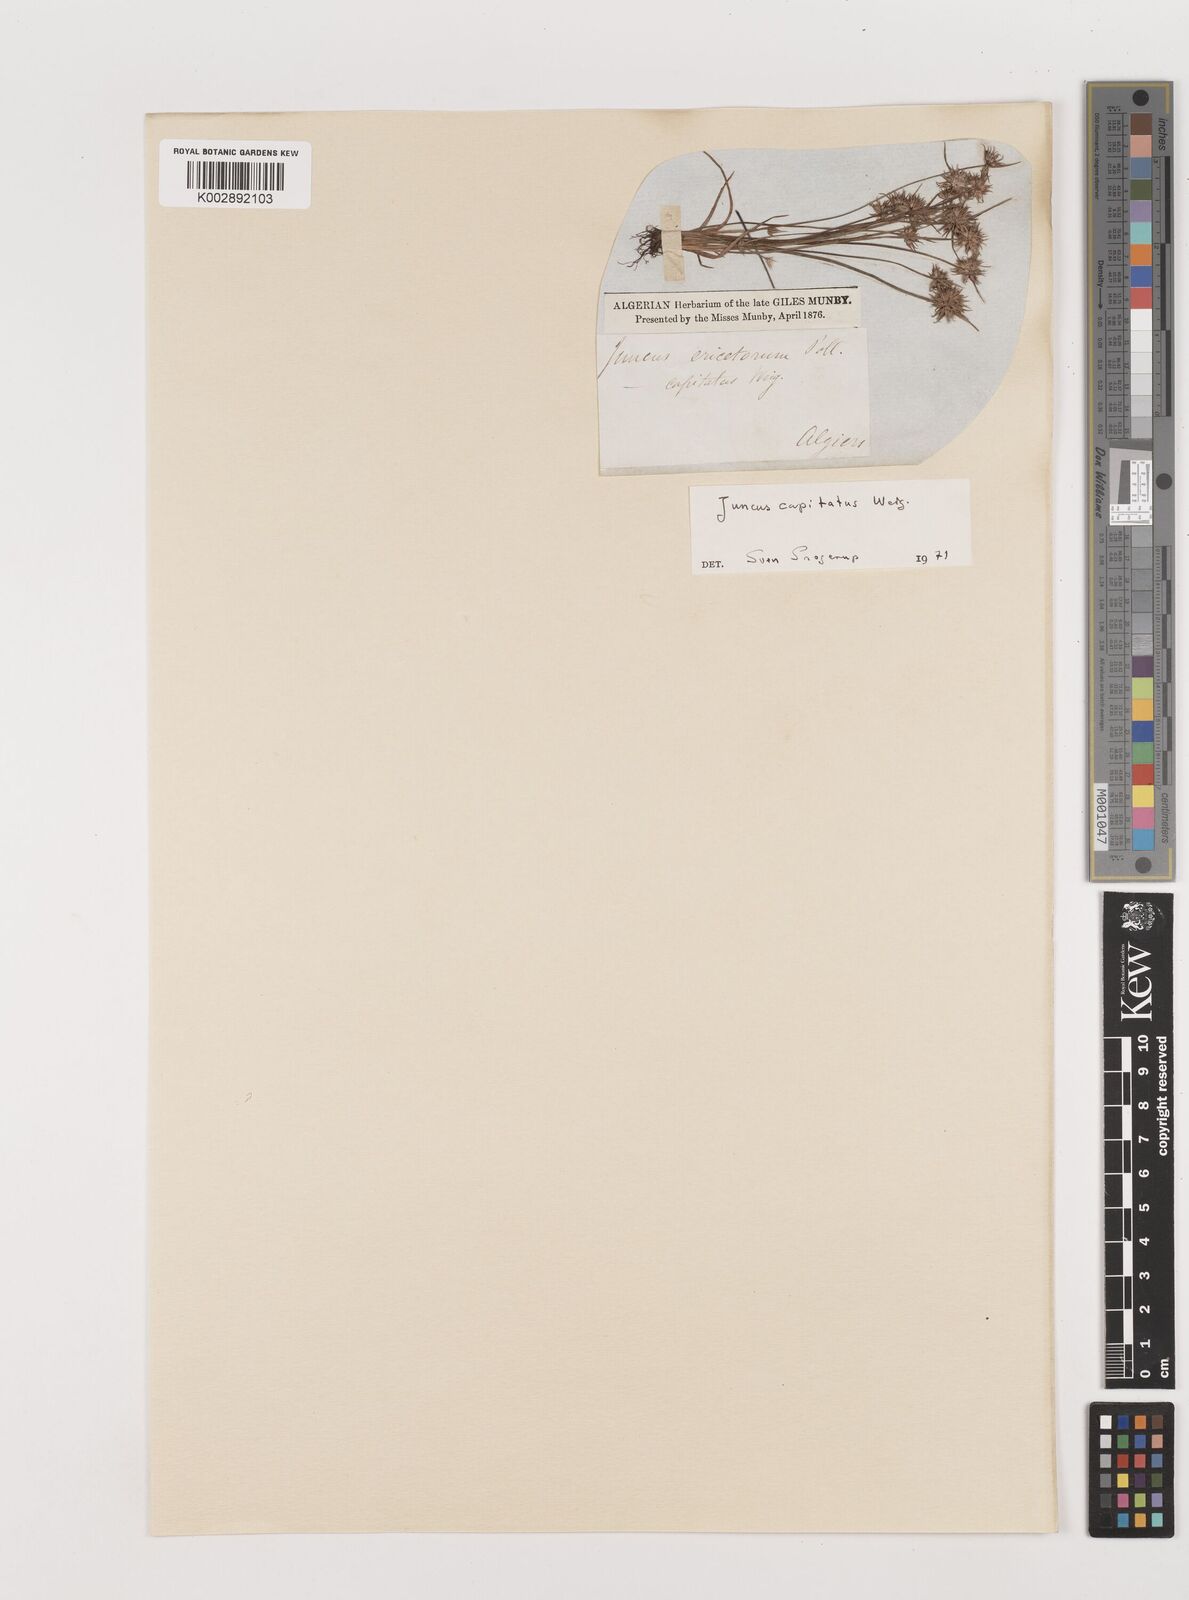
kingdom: Plantae
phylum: Tracheophyta
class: Liliopsida
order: Poales
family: Juncaceae
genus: Juncus
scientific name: Juncus capitatus
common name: Dwarf rush
